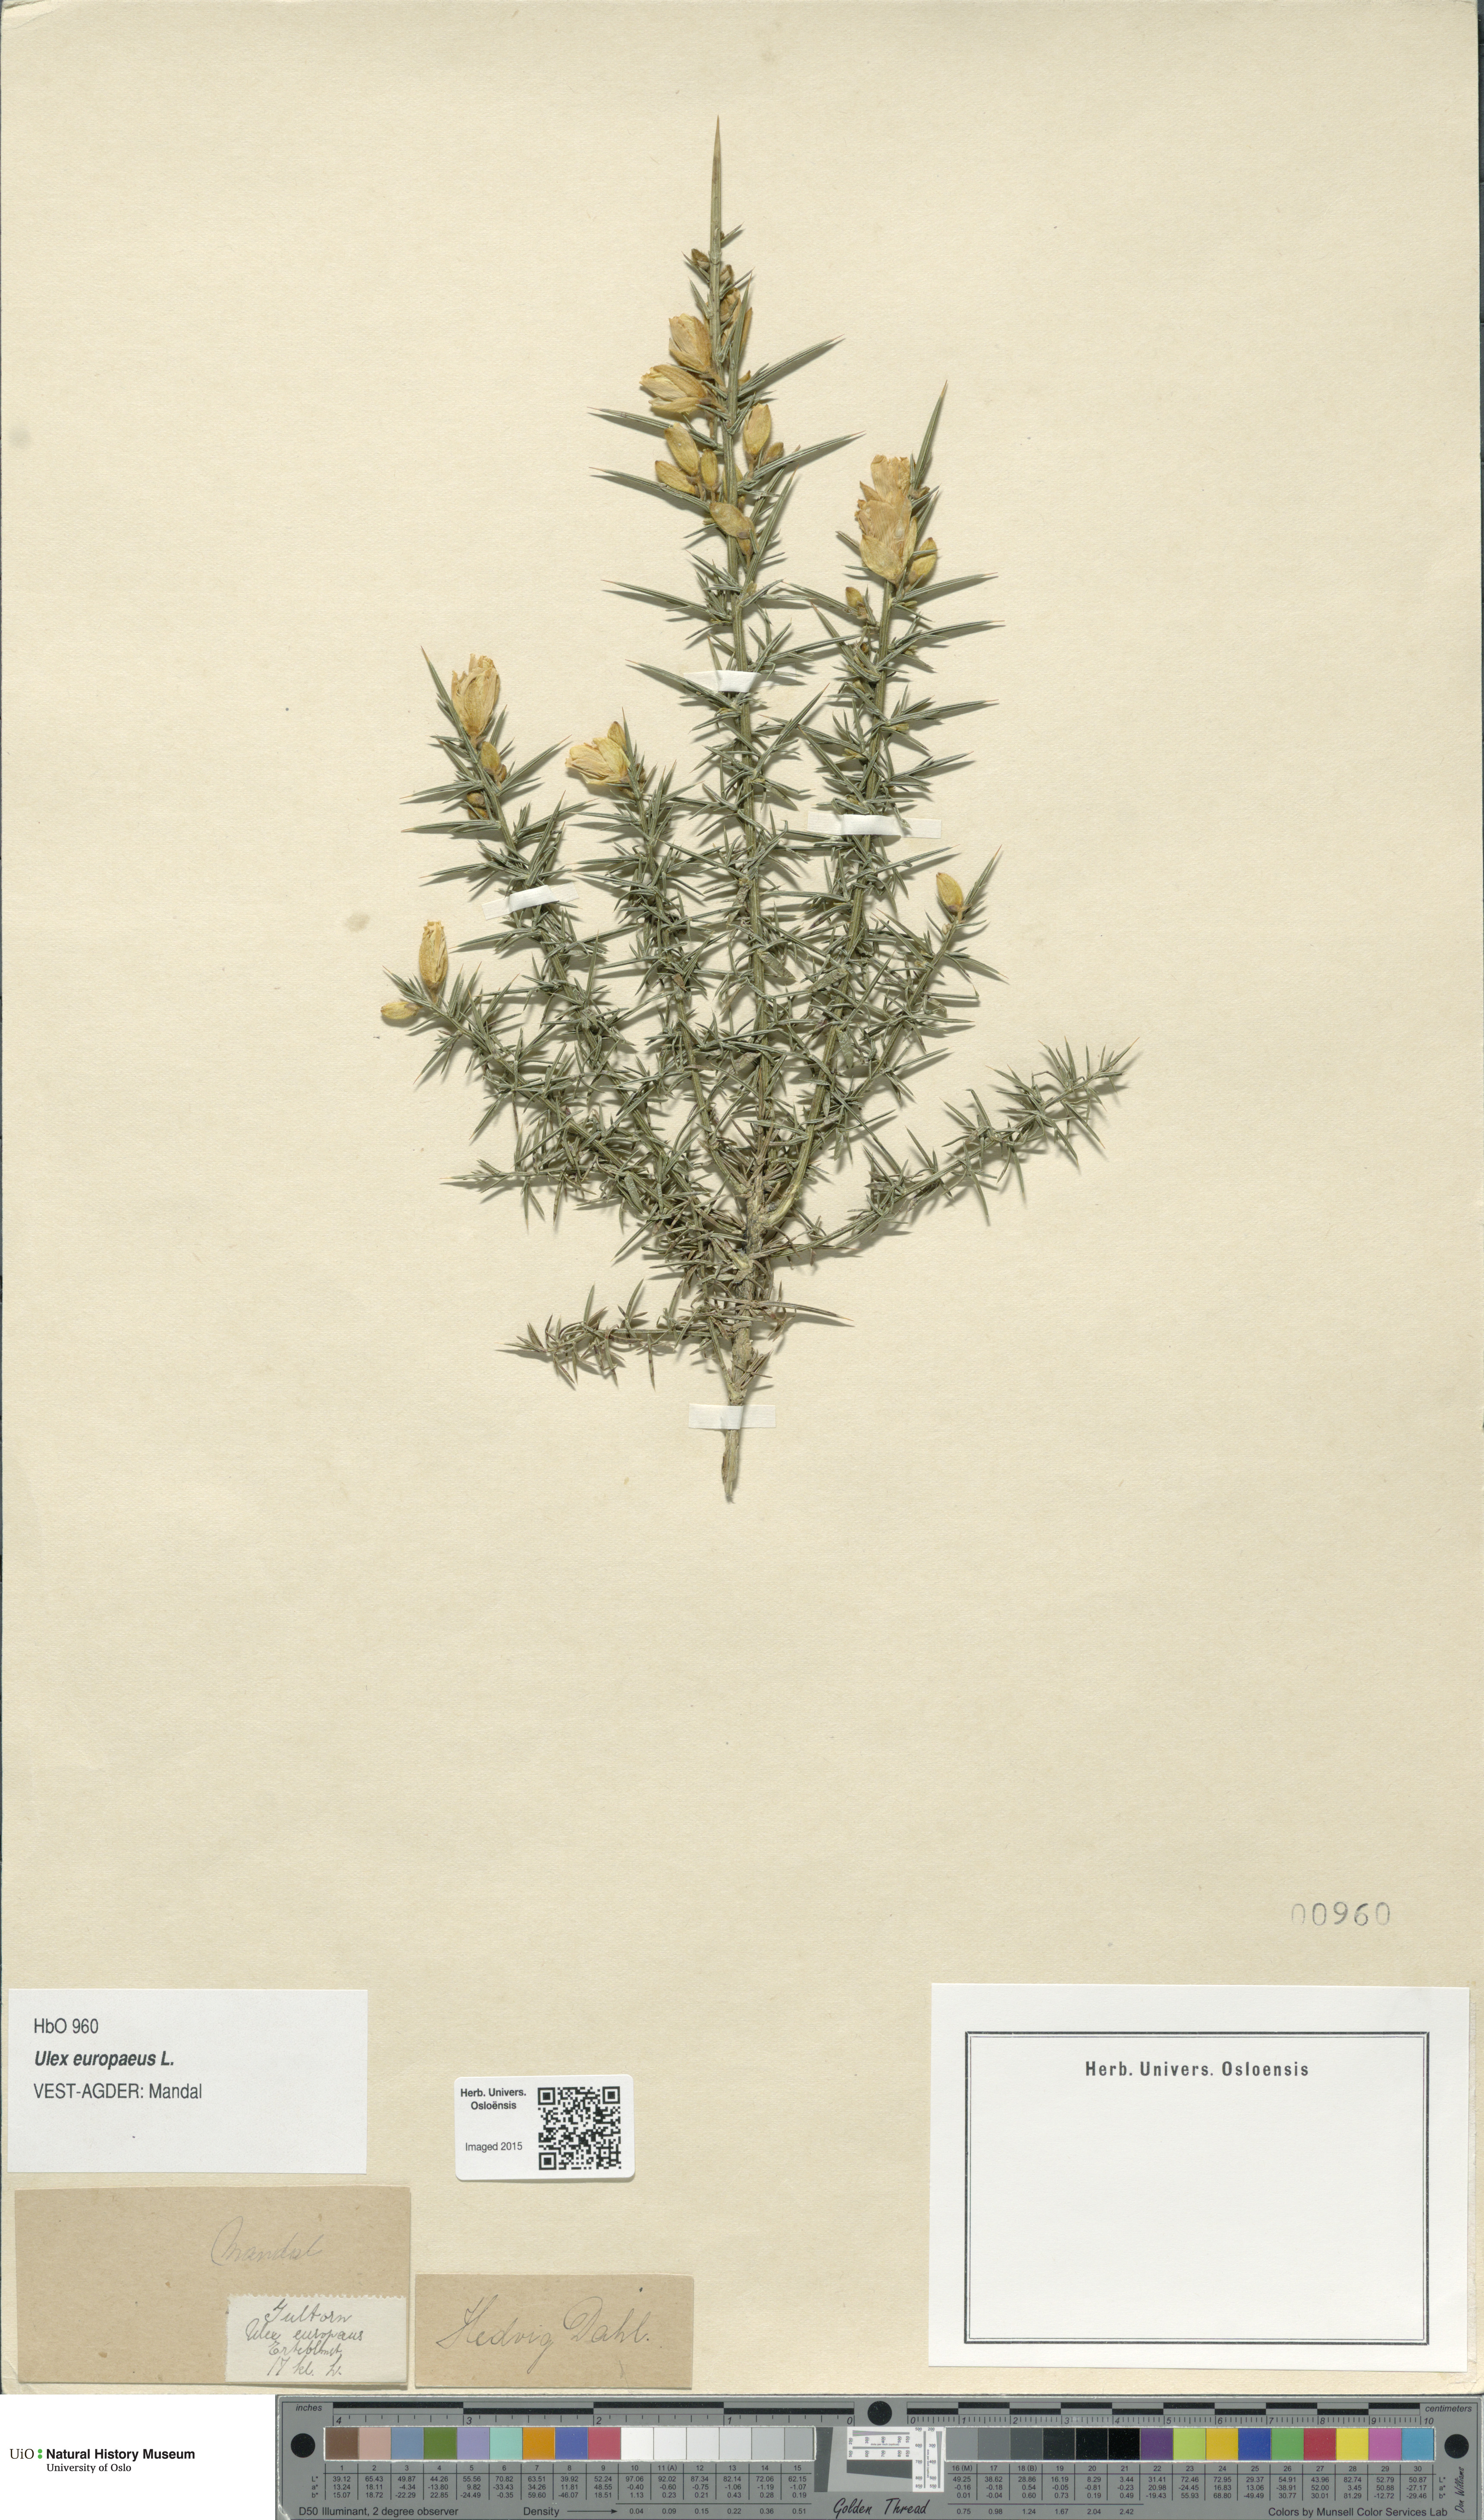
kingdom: Plantae
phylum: Tracheophyta
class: Magnoliopsida
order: Fabales
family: Fabaceae
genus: Ulex
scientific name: Ulex europaeus
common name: Common gorse
